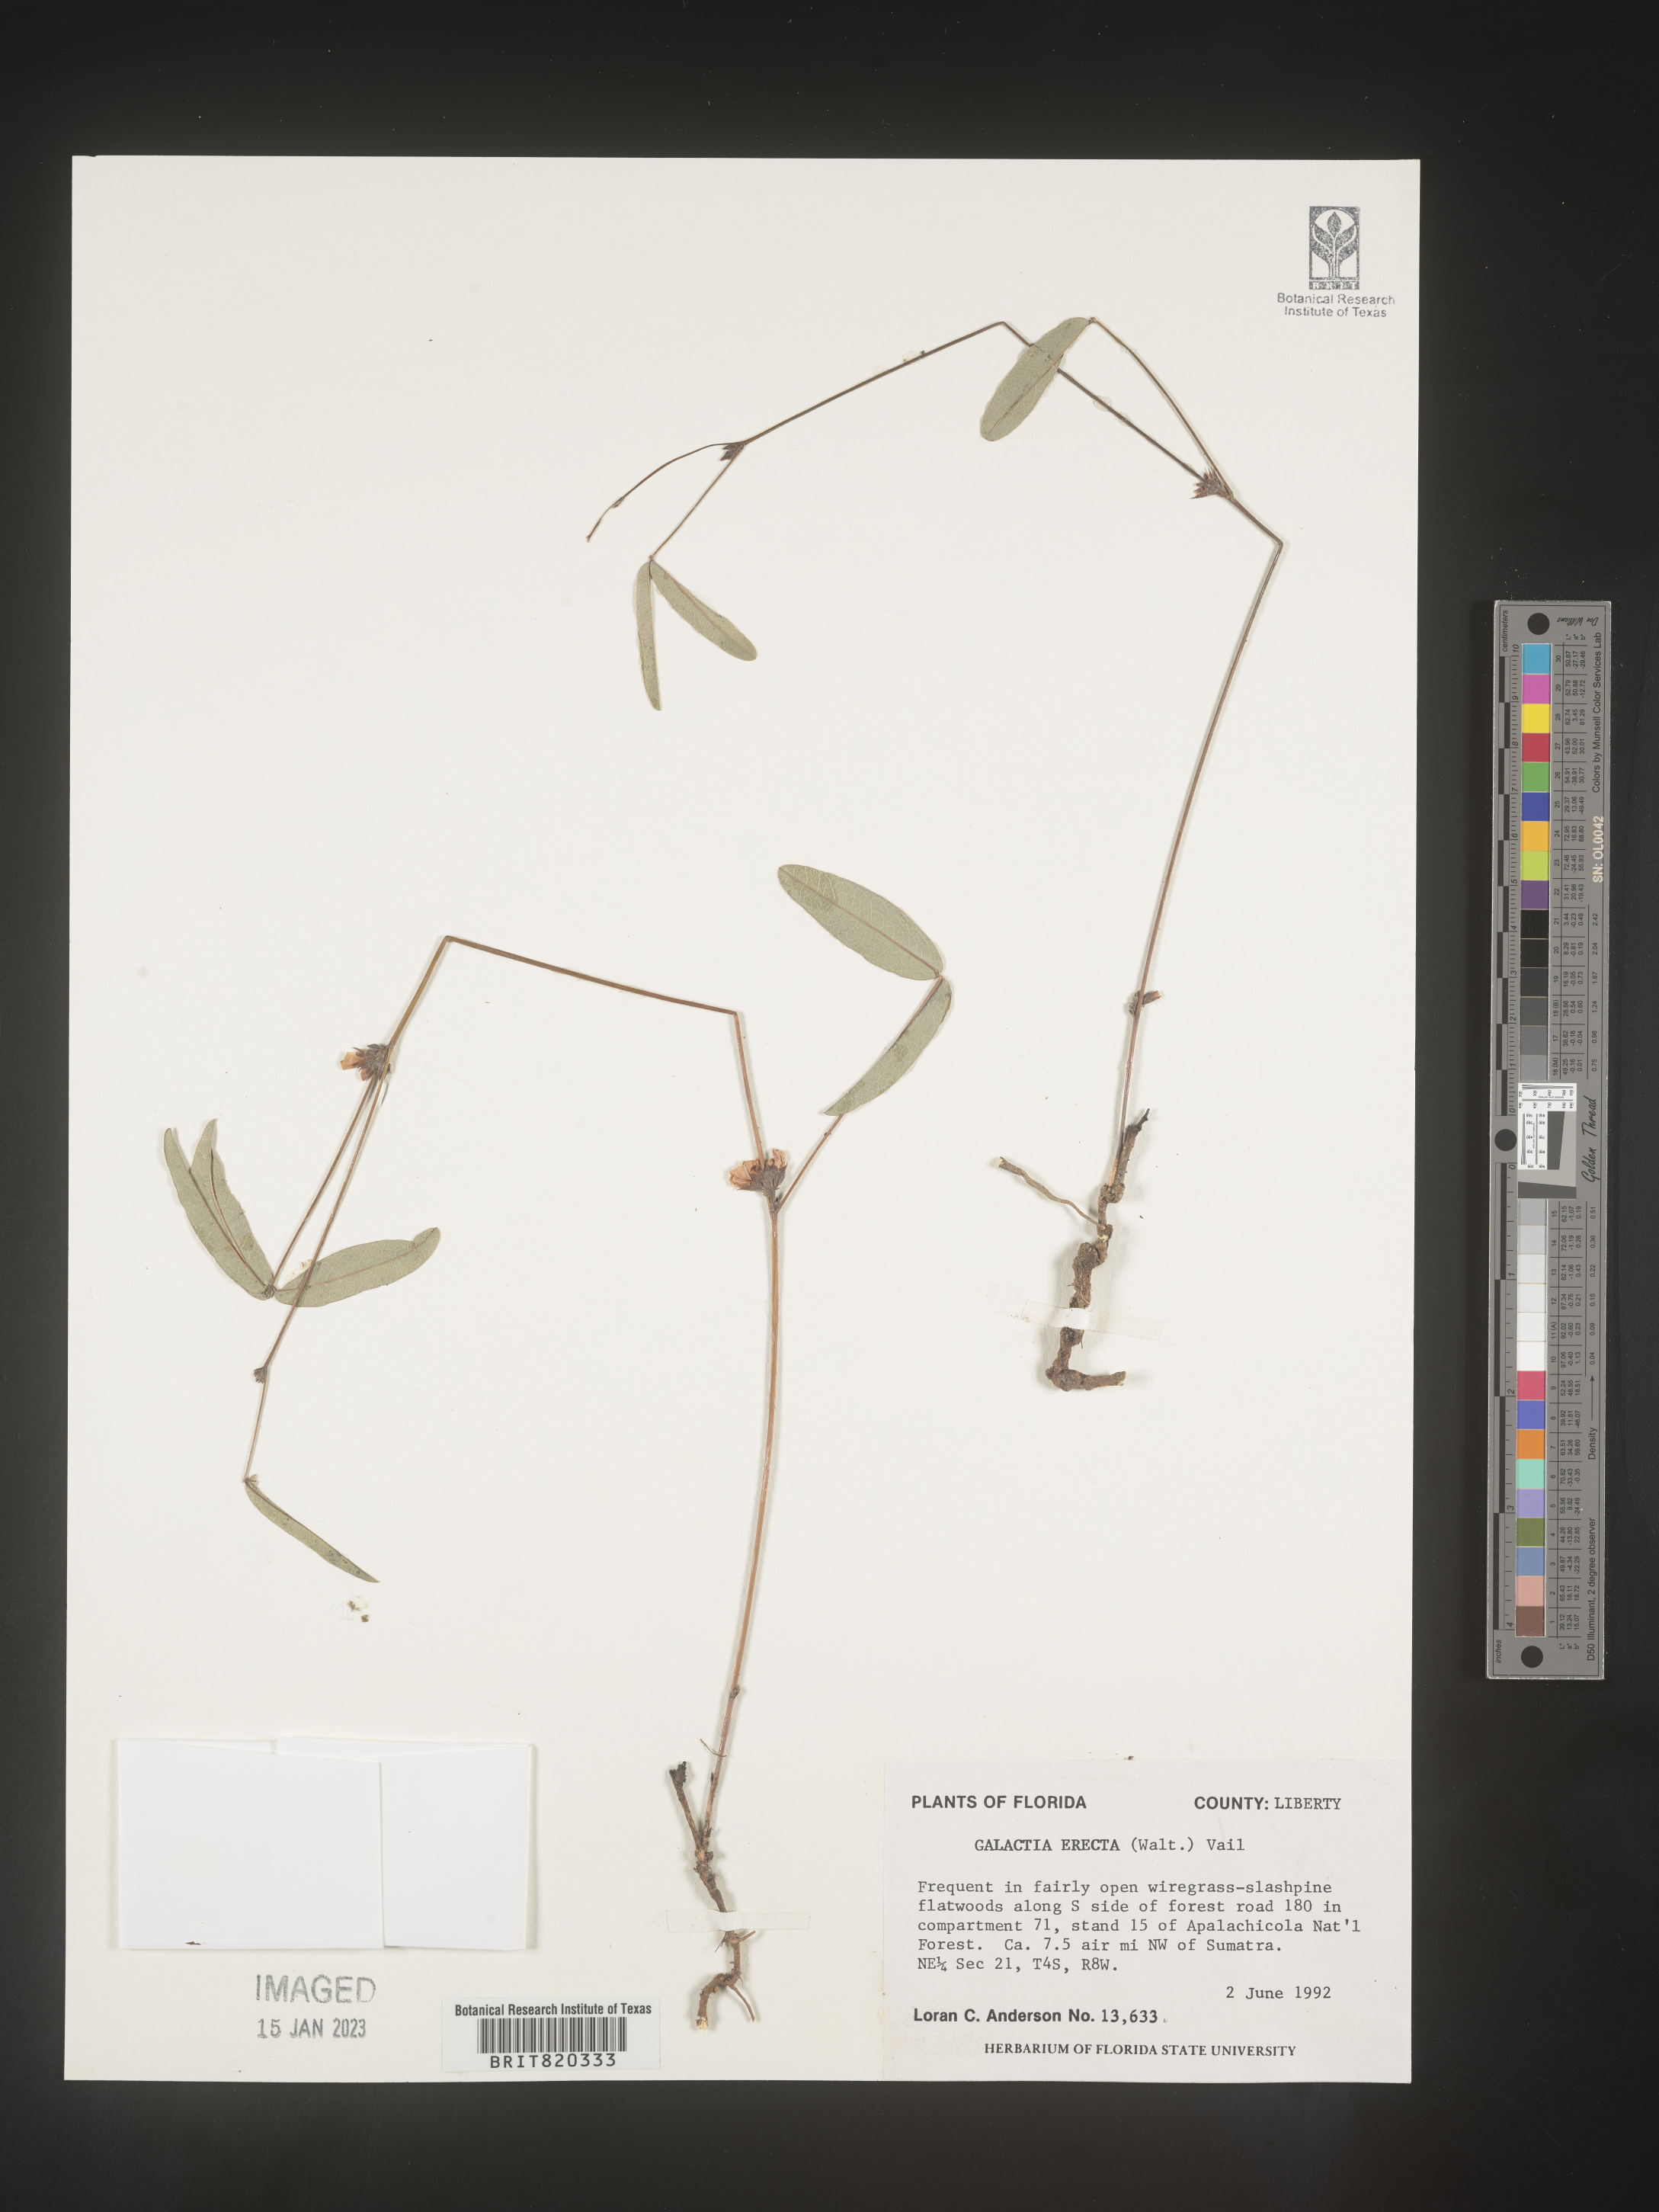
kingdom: Plantae
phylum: Tracheophyta
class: Magnoliopsida
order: Fabales
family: Fabaceae
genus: Galactia
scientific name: Galactia erecta
